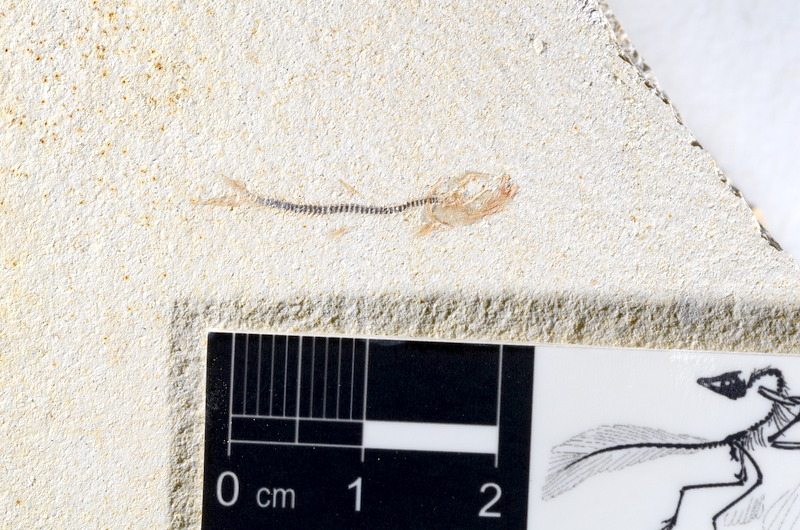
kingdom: Animalia
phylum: Chordata
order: Salmoniformes
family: Orthogonikleithridae
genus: Orthogonikleithrus
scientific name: Orthogonikleithrus hoelli
